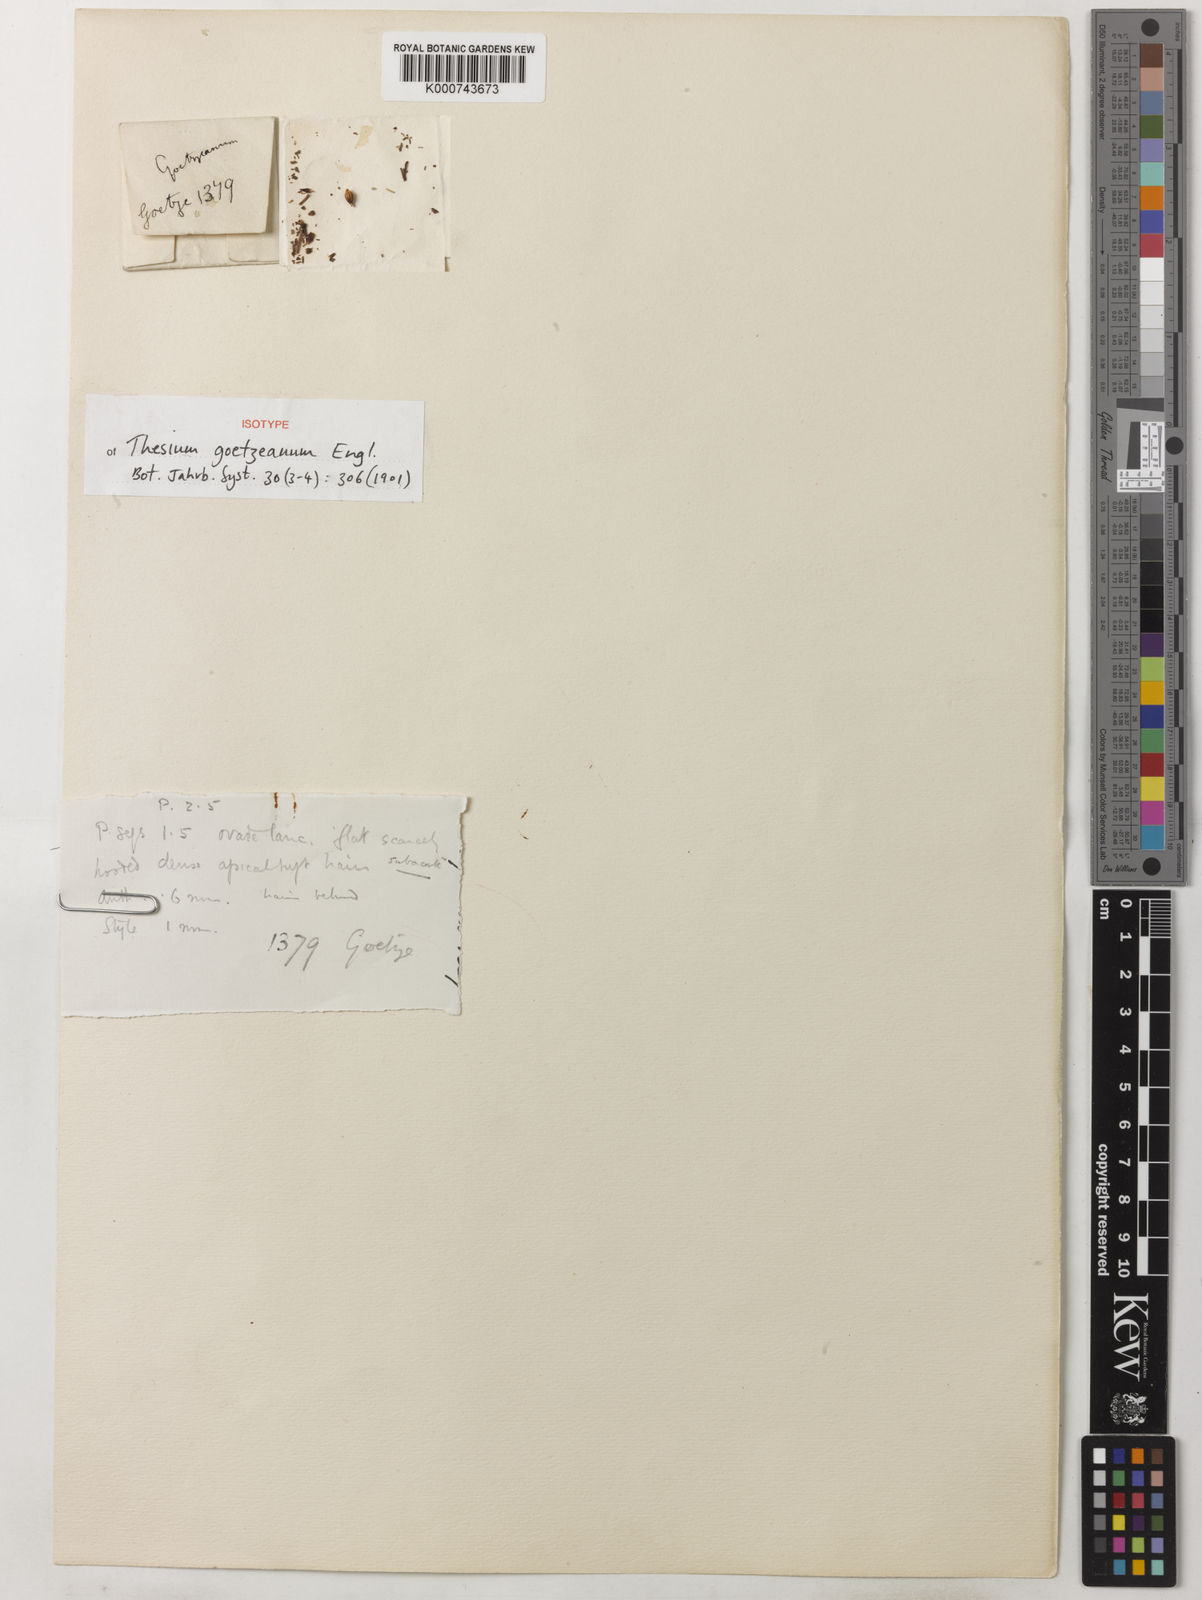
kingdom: Plantae
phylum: Tracheophyta
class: Magnoliopsida
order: Santalales
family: Thesiaceae
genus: Thesium
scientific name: Thesium goetzeanum
